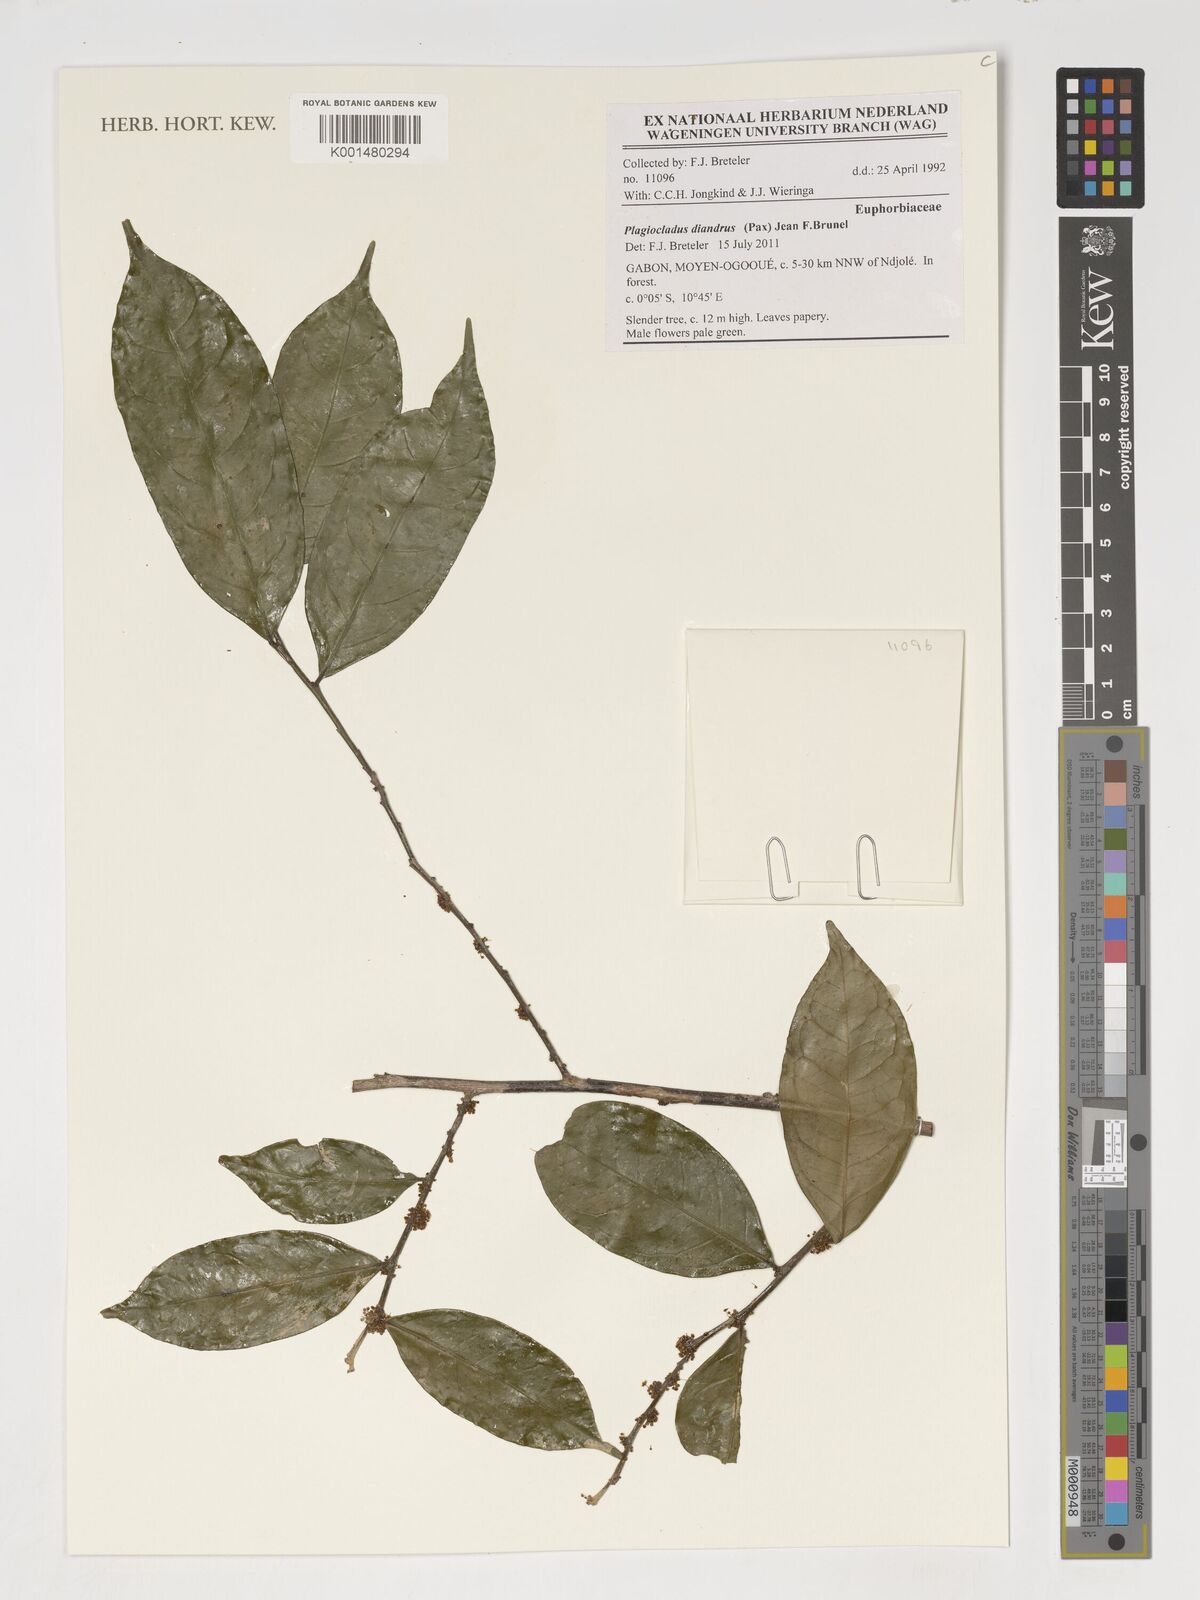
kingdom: Plantae
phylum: Tracheophyta
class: Magnoliopsida
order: Malpighiales
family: Phyllanthaceae
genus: Plagiocladus
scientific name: Plagiocladus diandrus
